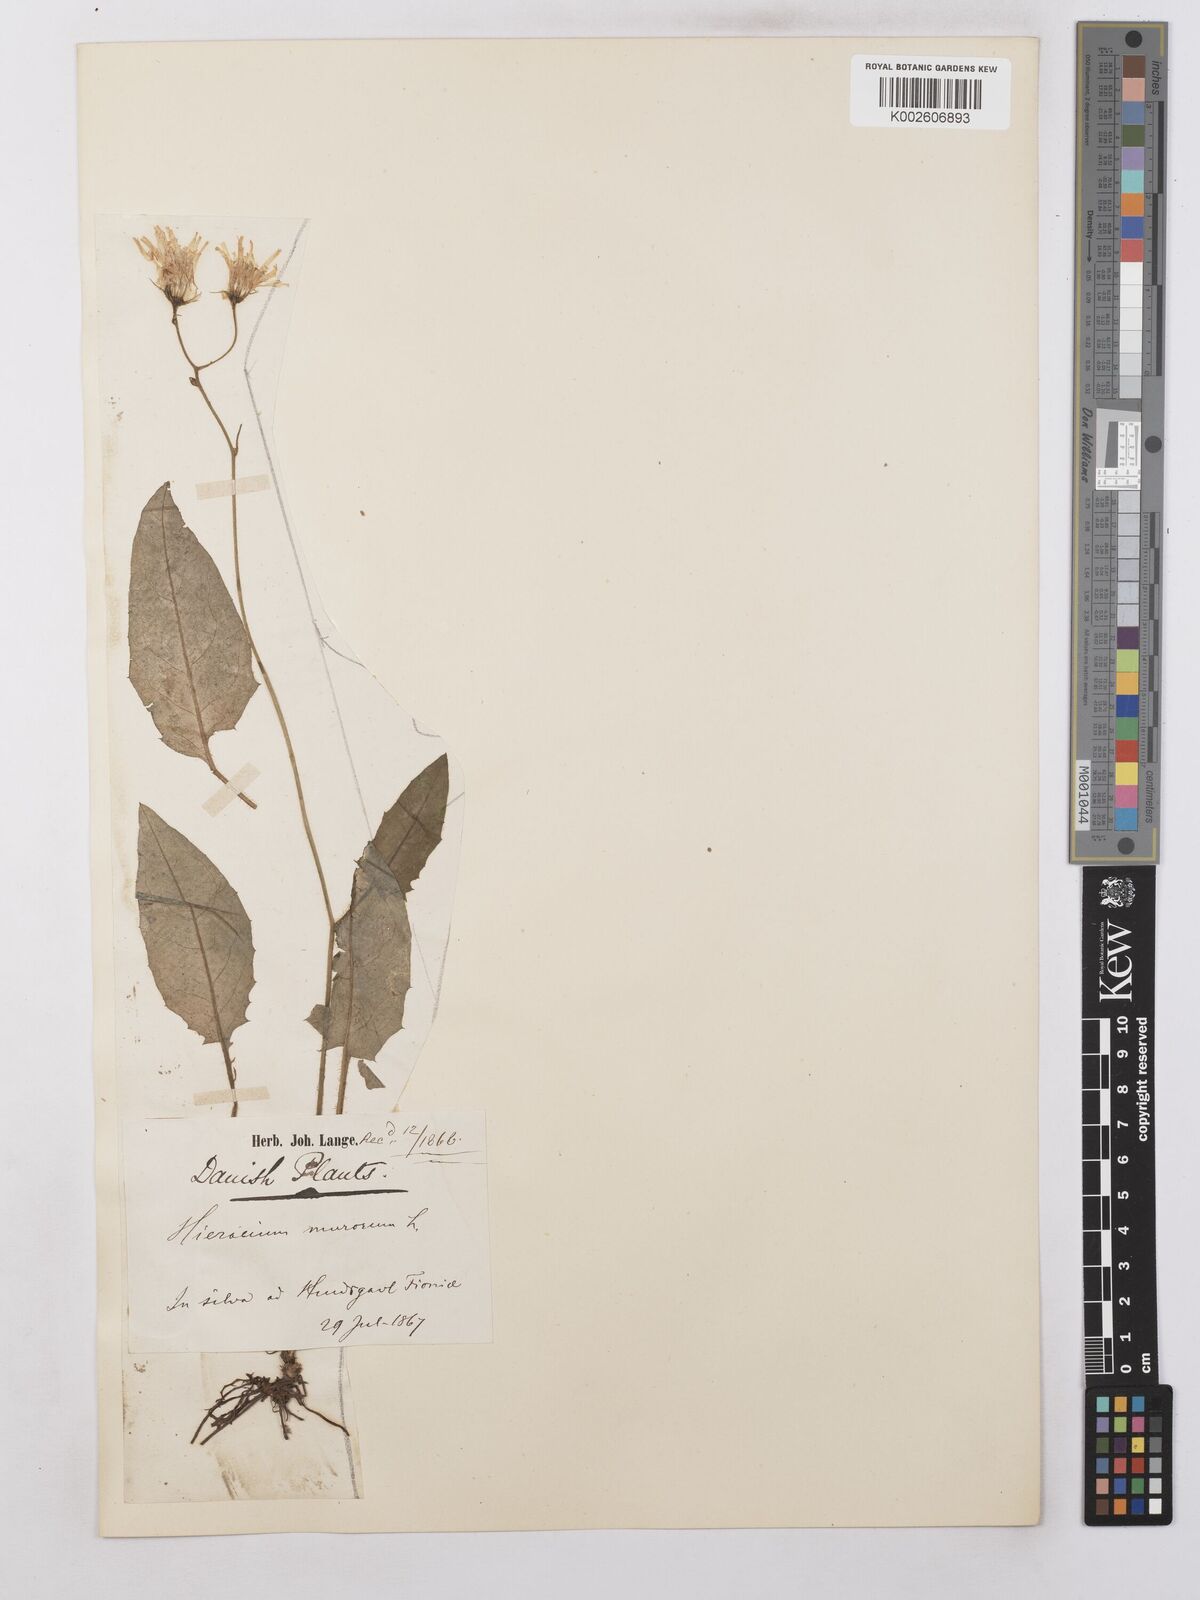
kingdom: Plantae
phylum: Tracheophyta
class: Magnoliopsida
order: Asterales
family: Asteraceae
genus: Hieracium
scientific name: Hieracium levicaule
